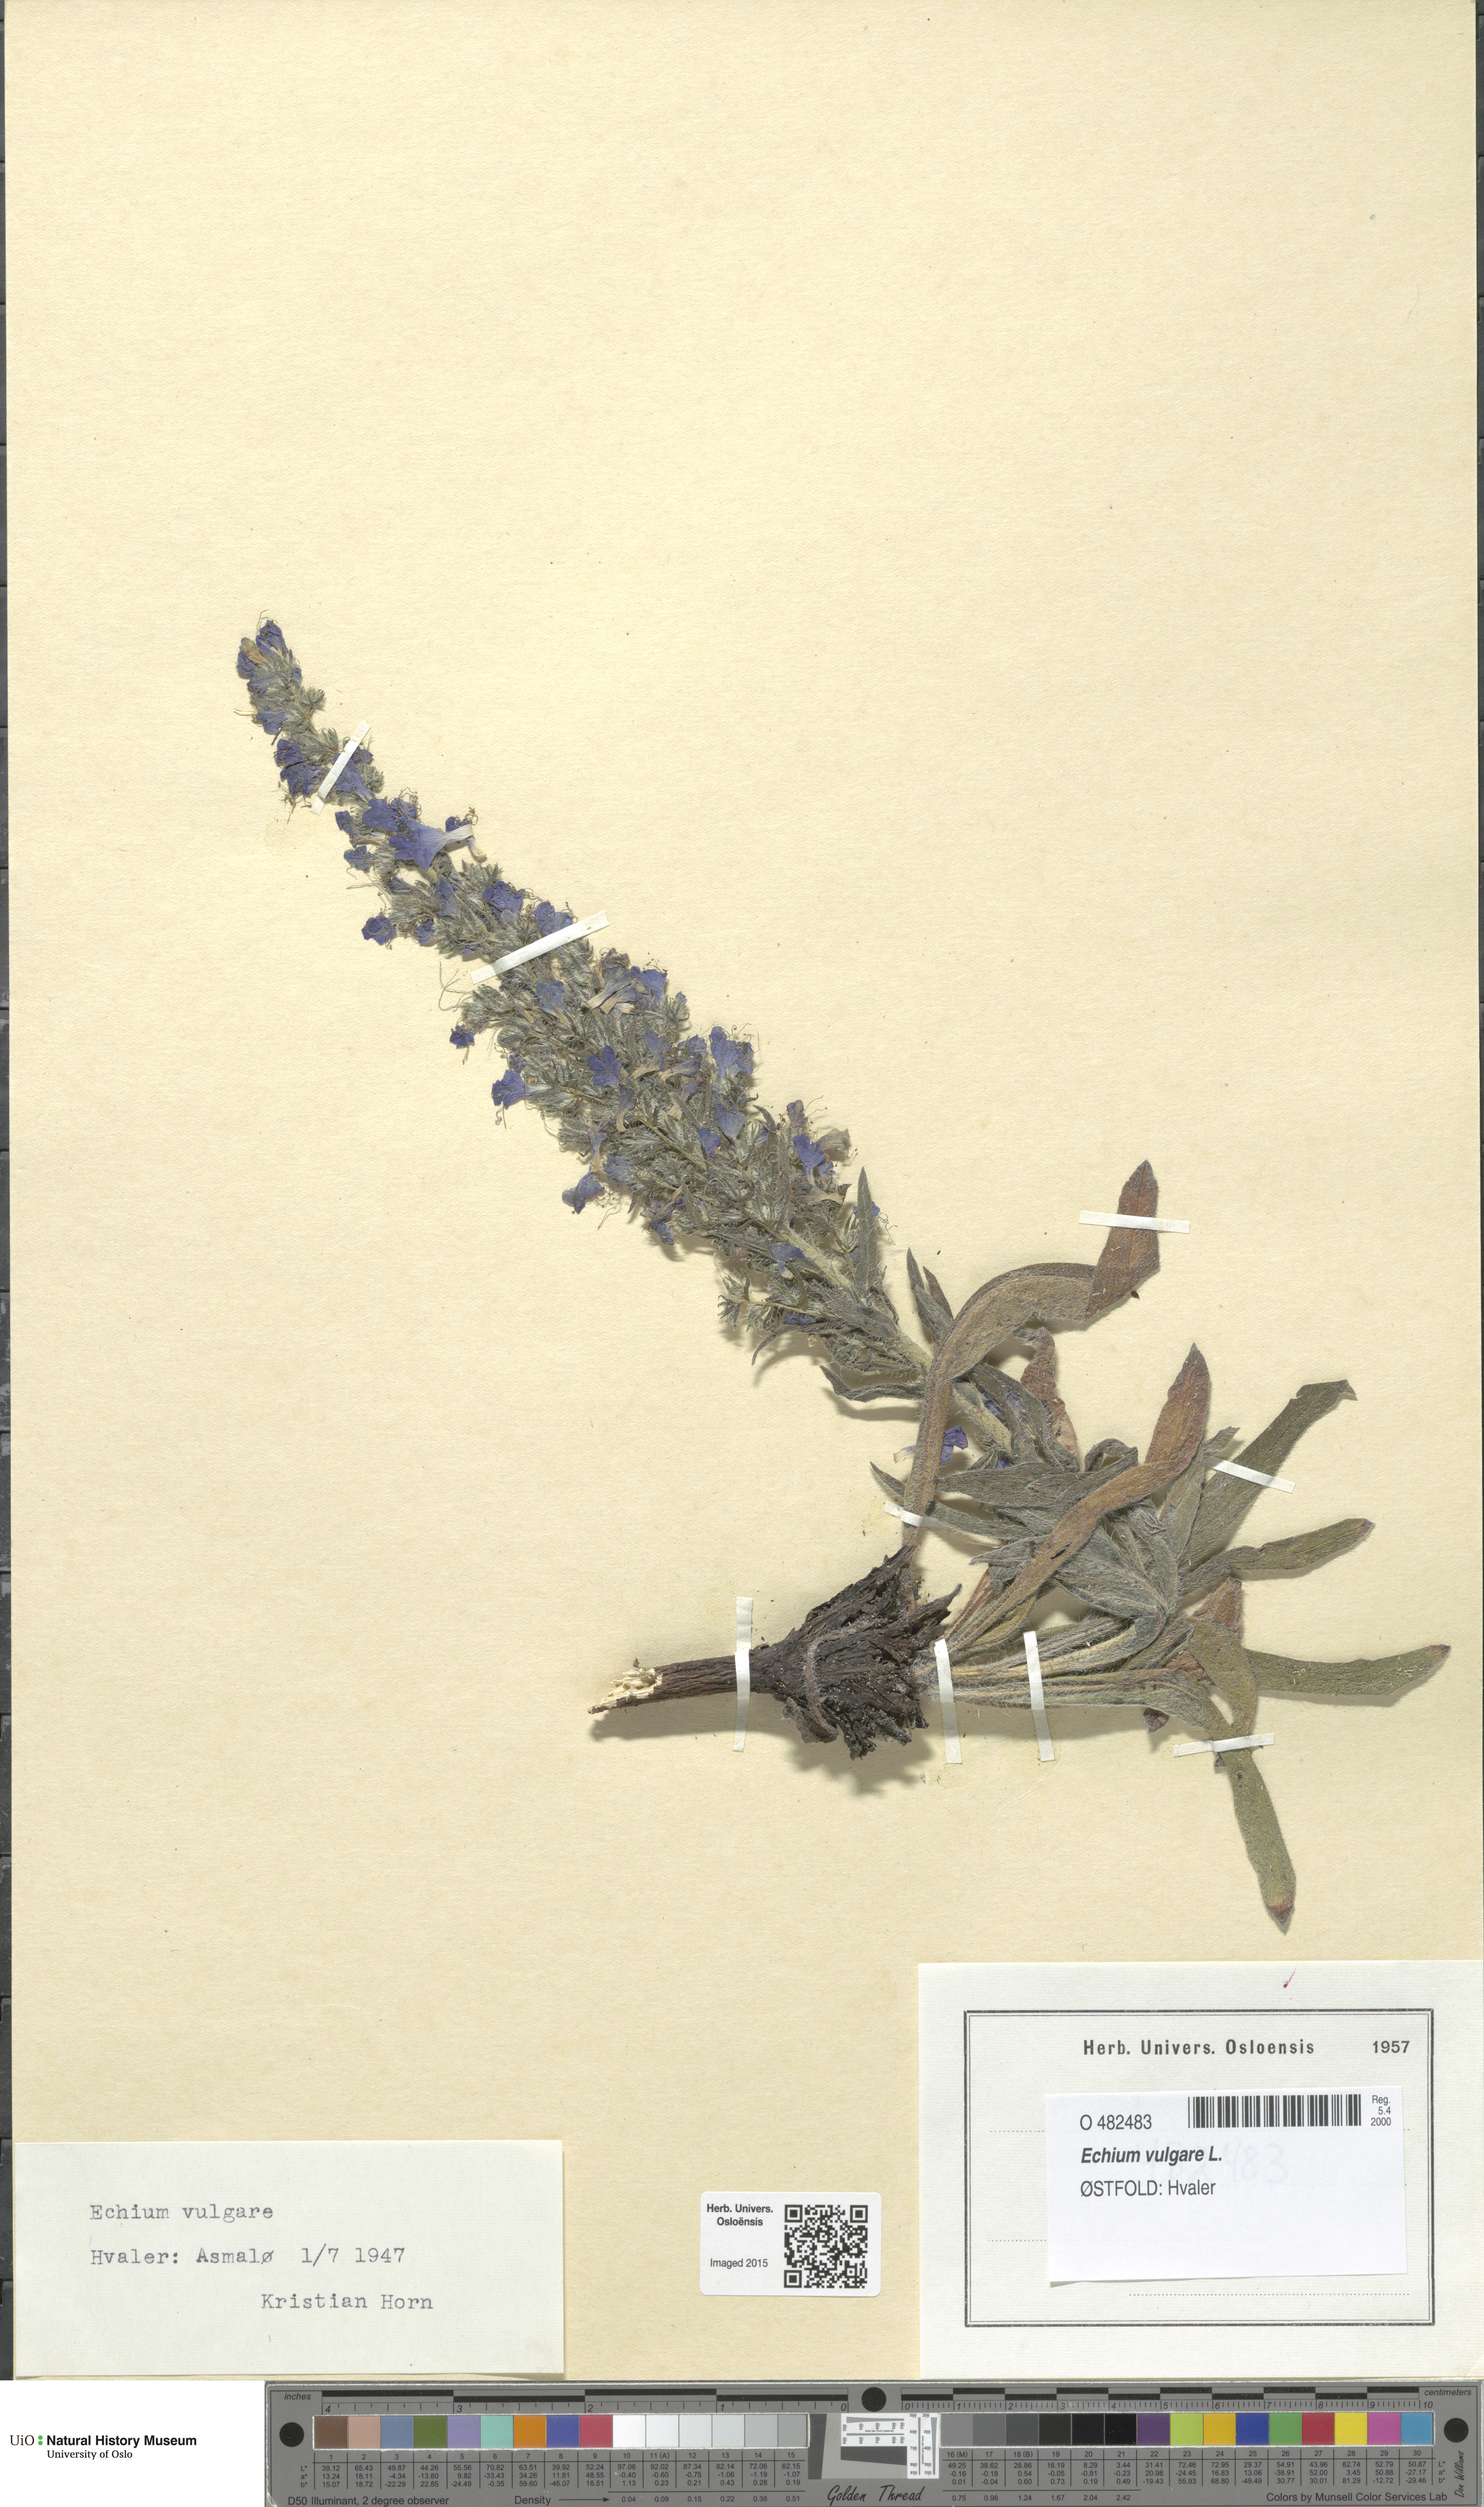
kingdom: Plantae
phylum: Tracheophyta
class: Magnoliopsida
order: Boraginales
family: Boraginaceae
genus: Echium
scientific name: Echium vulgare
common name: Common viper's bugloss
